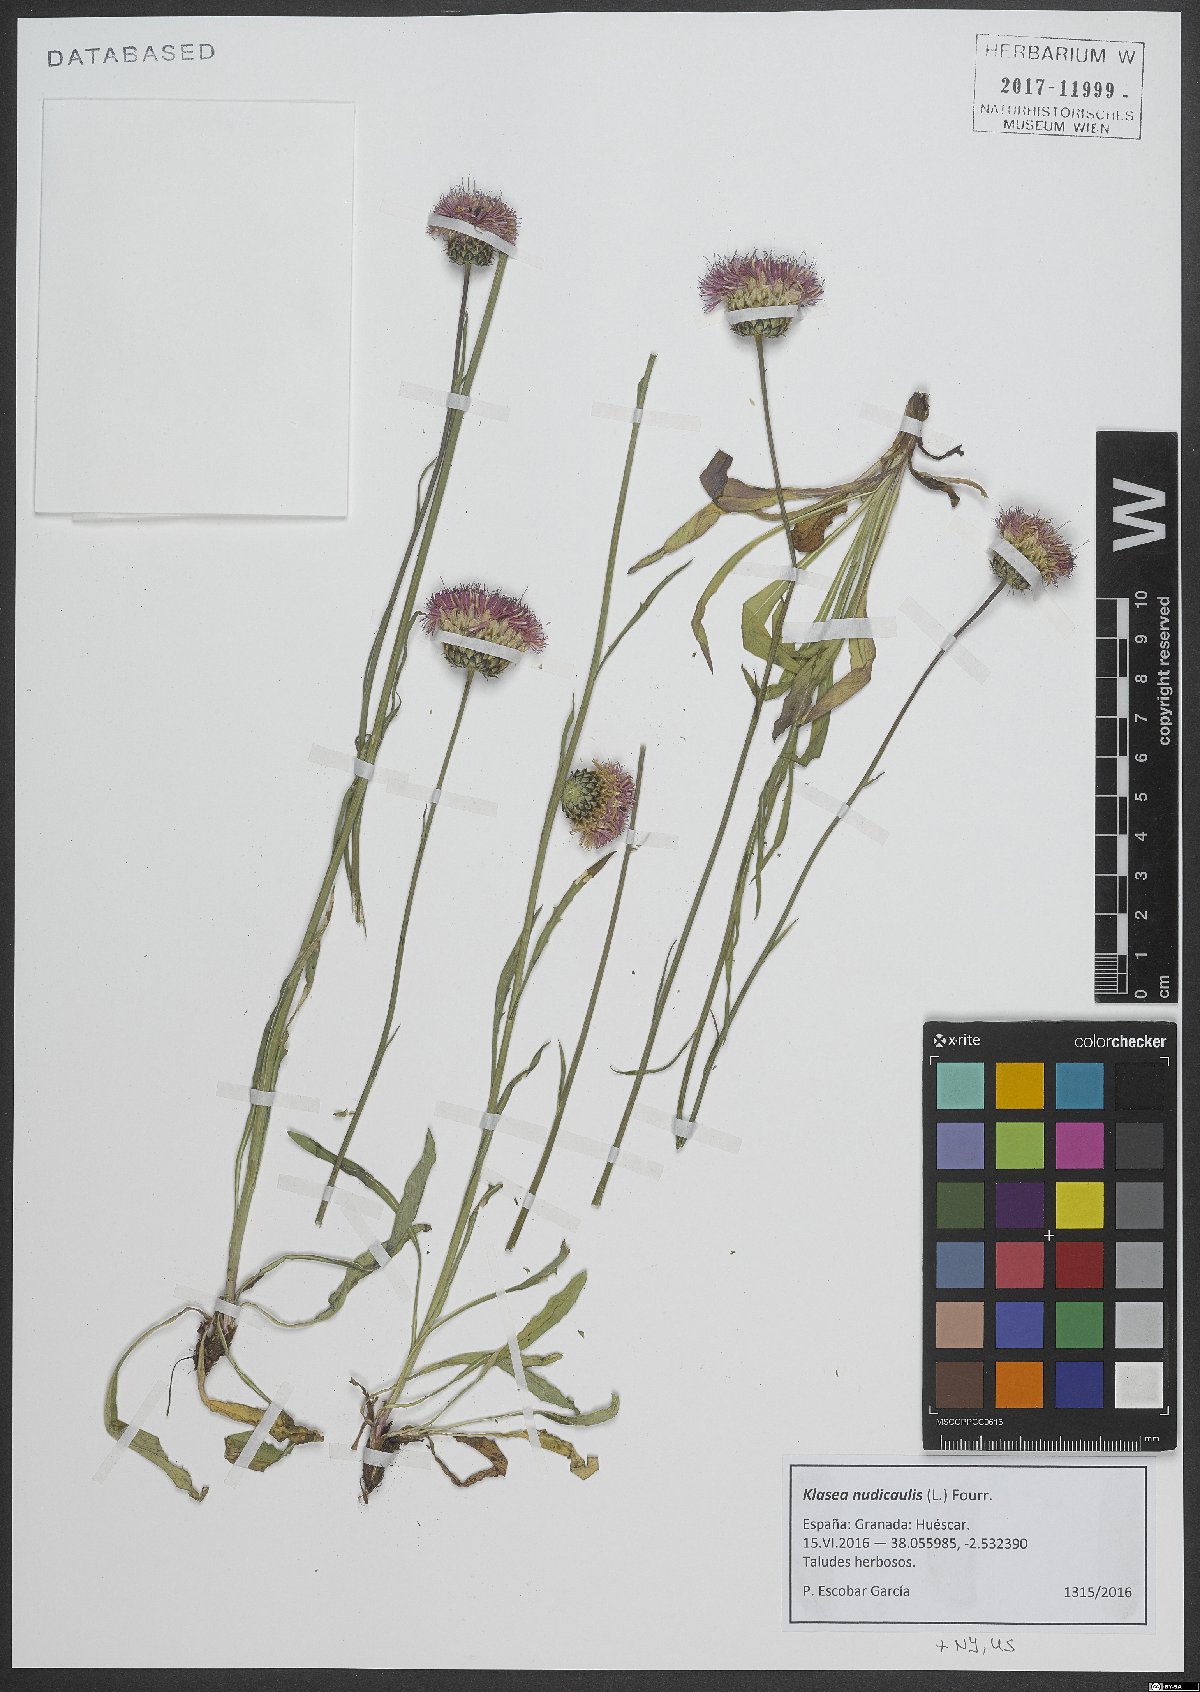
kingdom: Plantae
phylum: Tracheophyta
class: Magnoliopsida
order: Asterales
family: Asteraceae
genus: Klasea
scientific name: Klasea nudicaulis
